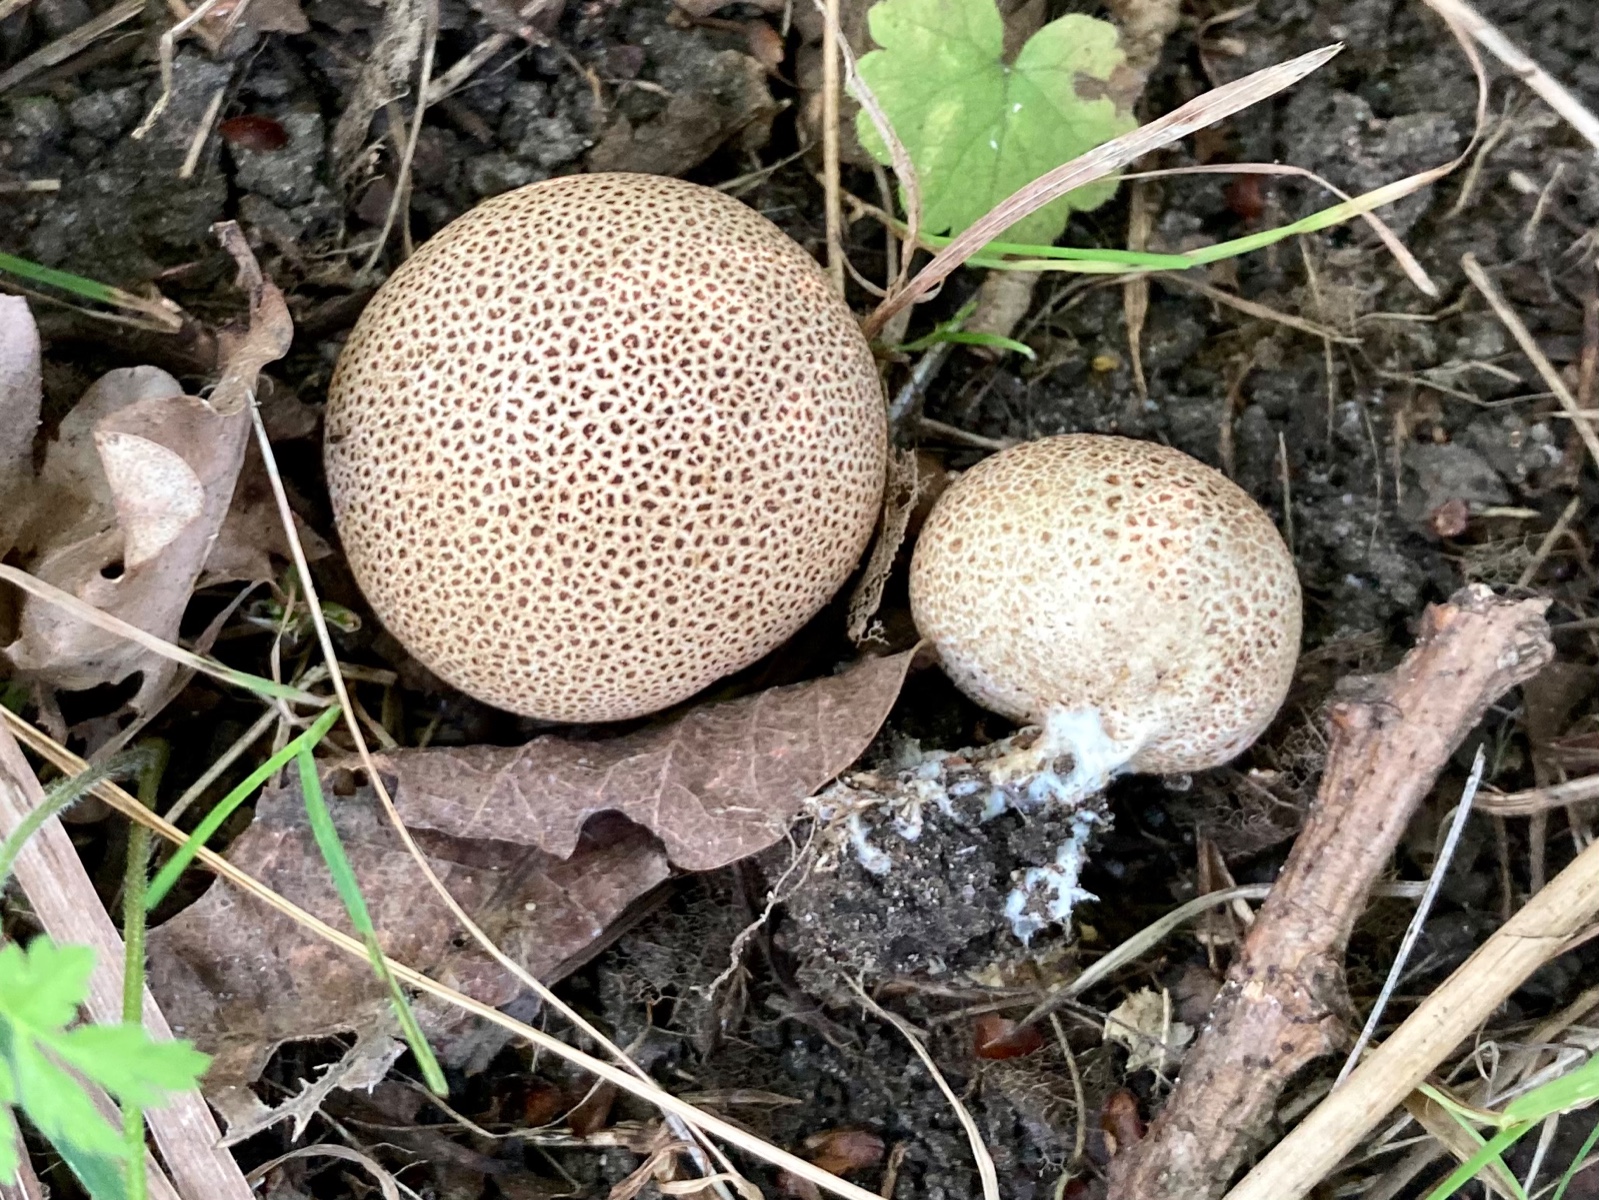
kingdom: Fungi
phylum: Basidiomycota
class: Agaricomycetes
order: Boletales
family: Sclerodermataceae
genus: Scleroderma
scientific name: Scleroderma areolatum
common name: plettet bruskbold
